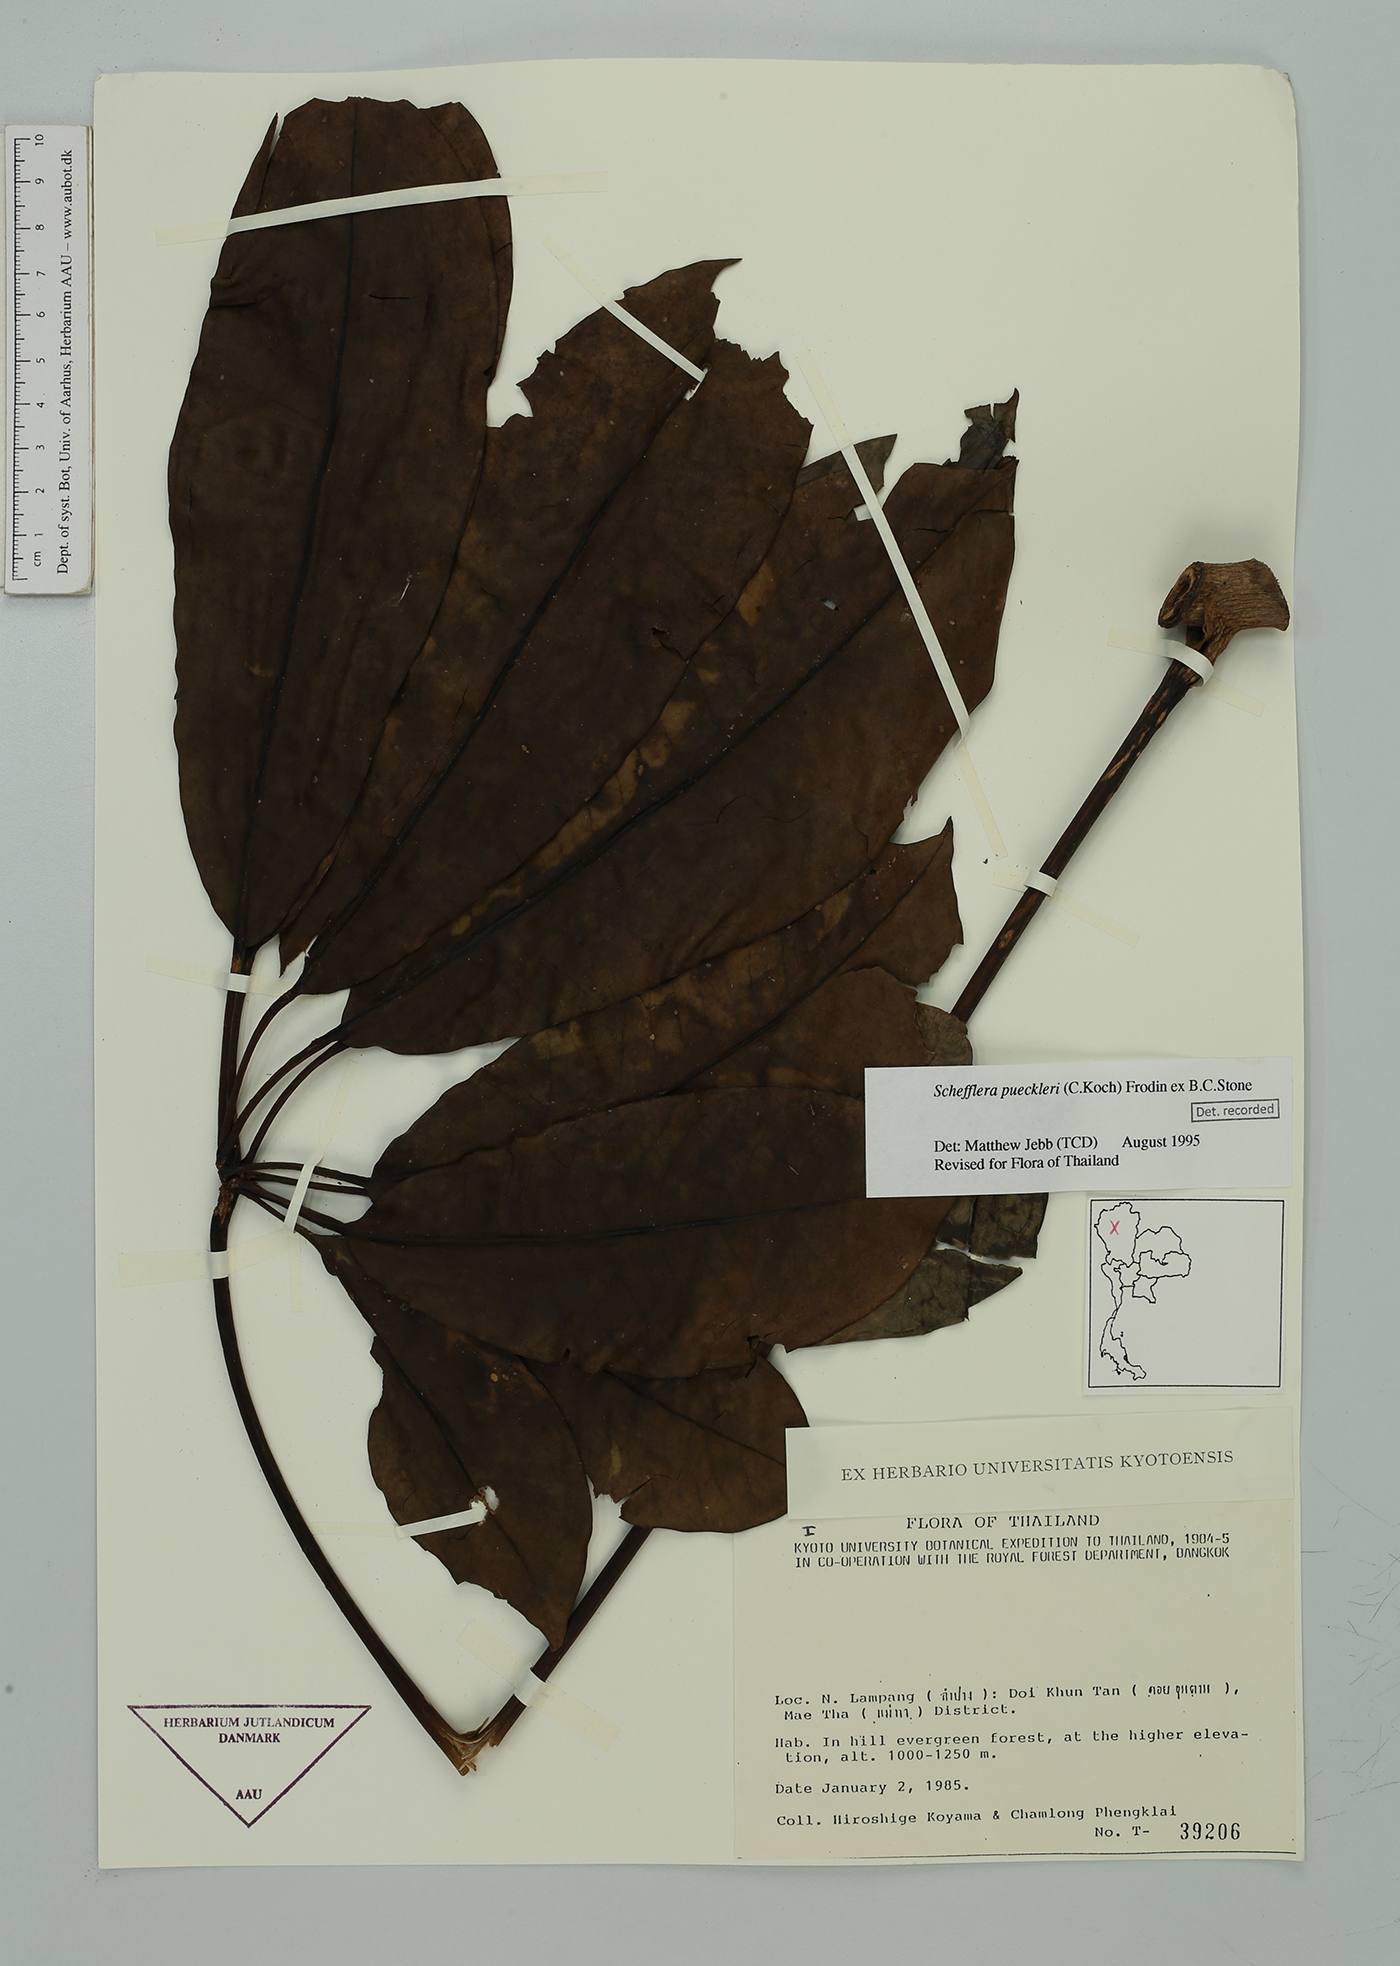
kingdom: Plantae
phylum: Tracheophyta
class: Magnoliopsida
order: Apiales
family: Araliaceae
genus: Heptapleurum
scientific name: Heptapleurum calyptratum
